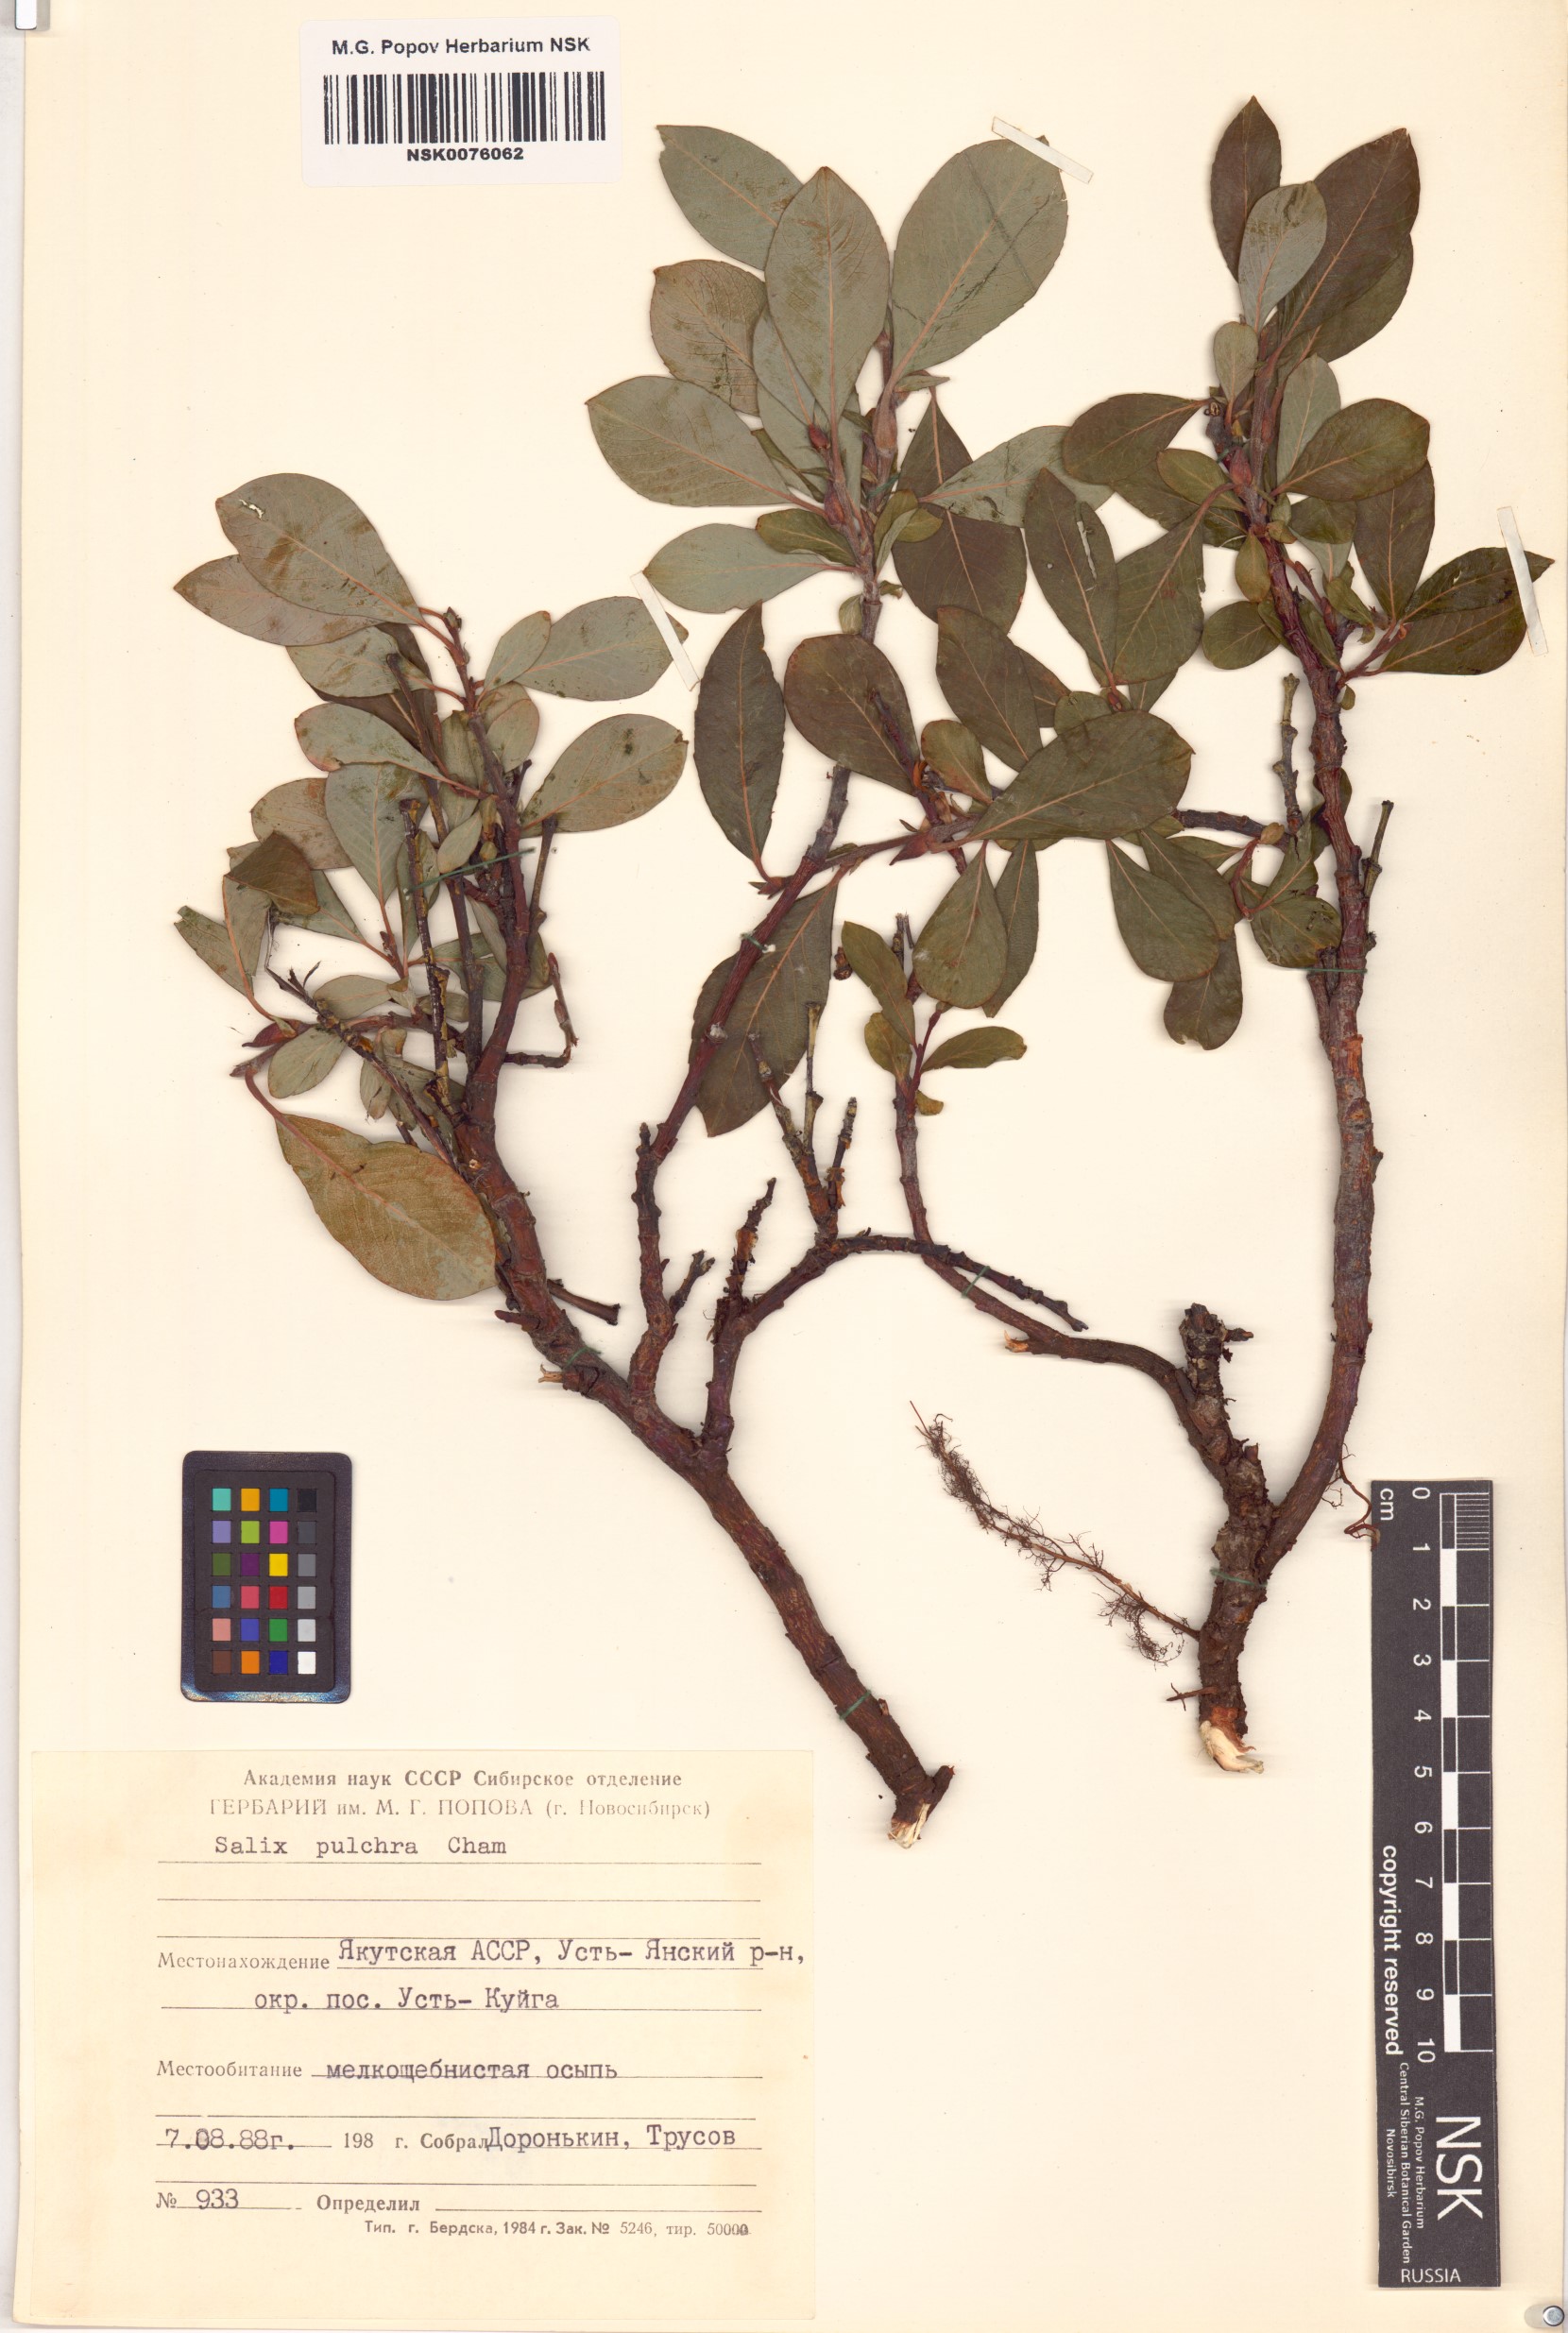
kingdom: Plantae
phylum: Tracheophyta
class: Magnoliopsida
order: Malpighiales
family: Salicaceae
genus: Salix
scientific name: Salix pulchra
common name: Diamond-leaved willow
